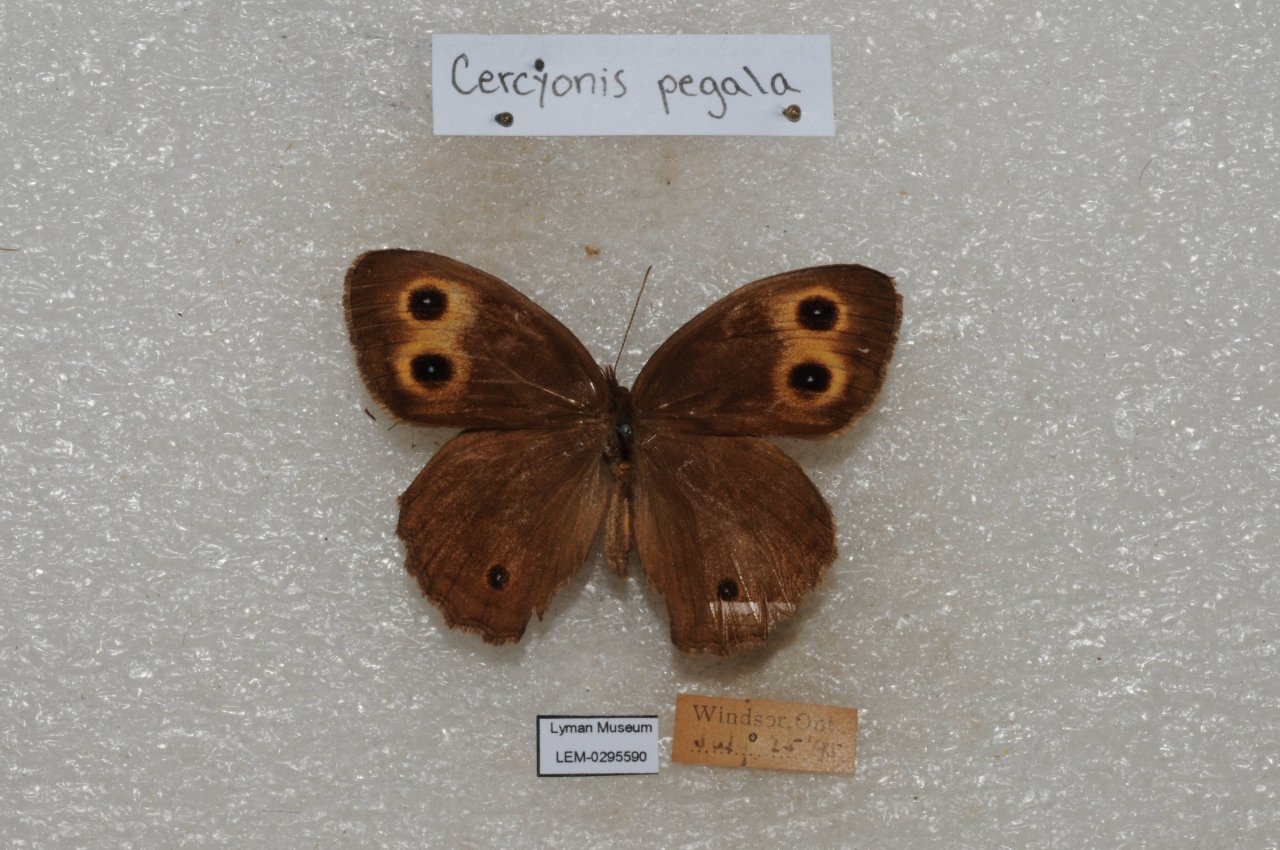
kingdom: Animalia
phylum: Arthropoda
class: Insecta
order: Lepidoptera
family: Nymphalidae
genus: Cercyonis
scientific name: Cercyonis pegala
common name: Common Wood-Nymph
